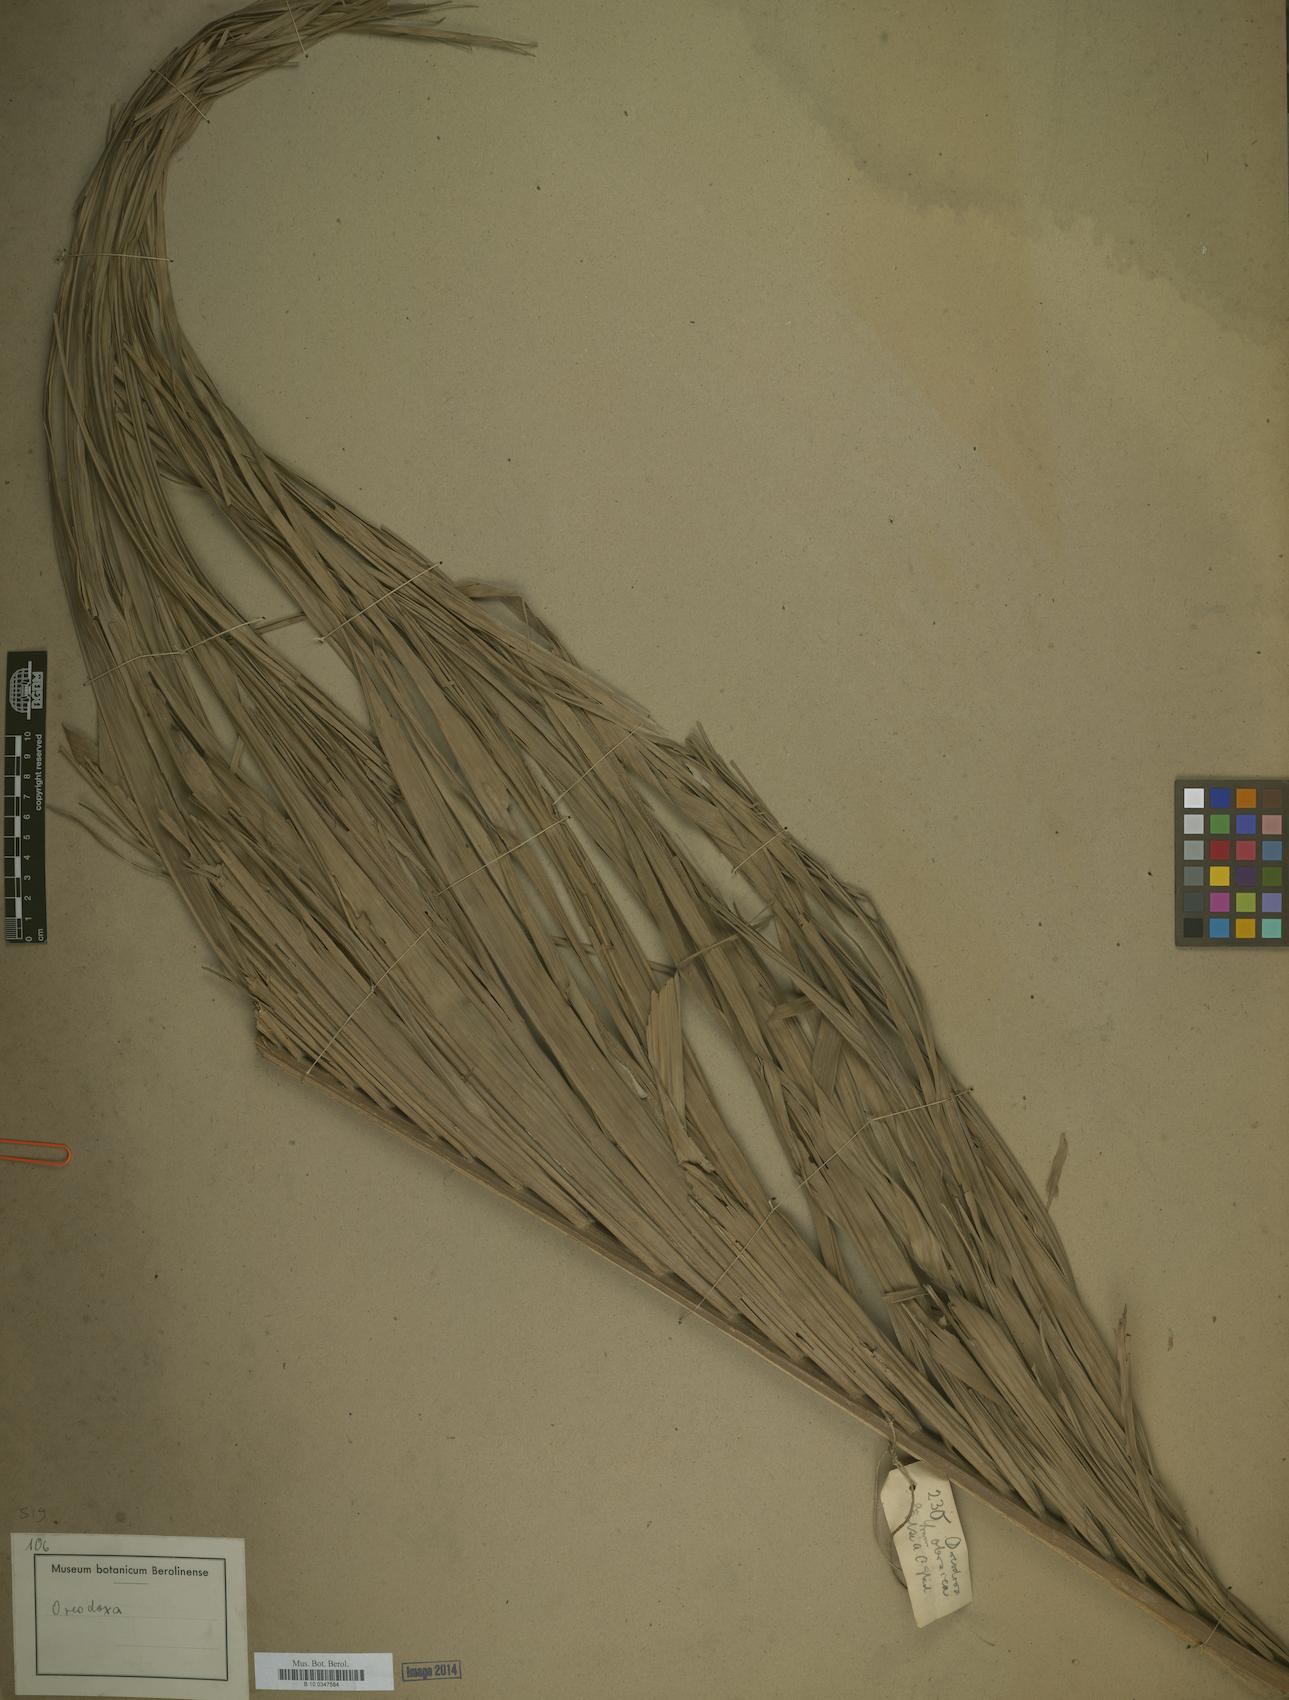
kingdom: Plantae
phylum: Tracheophyta
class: Liliopsida
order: Arecales
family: Arecaceae
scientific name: Arecaceae
